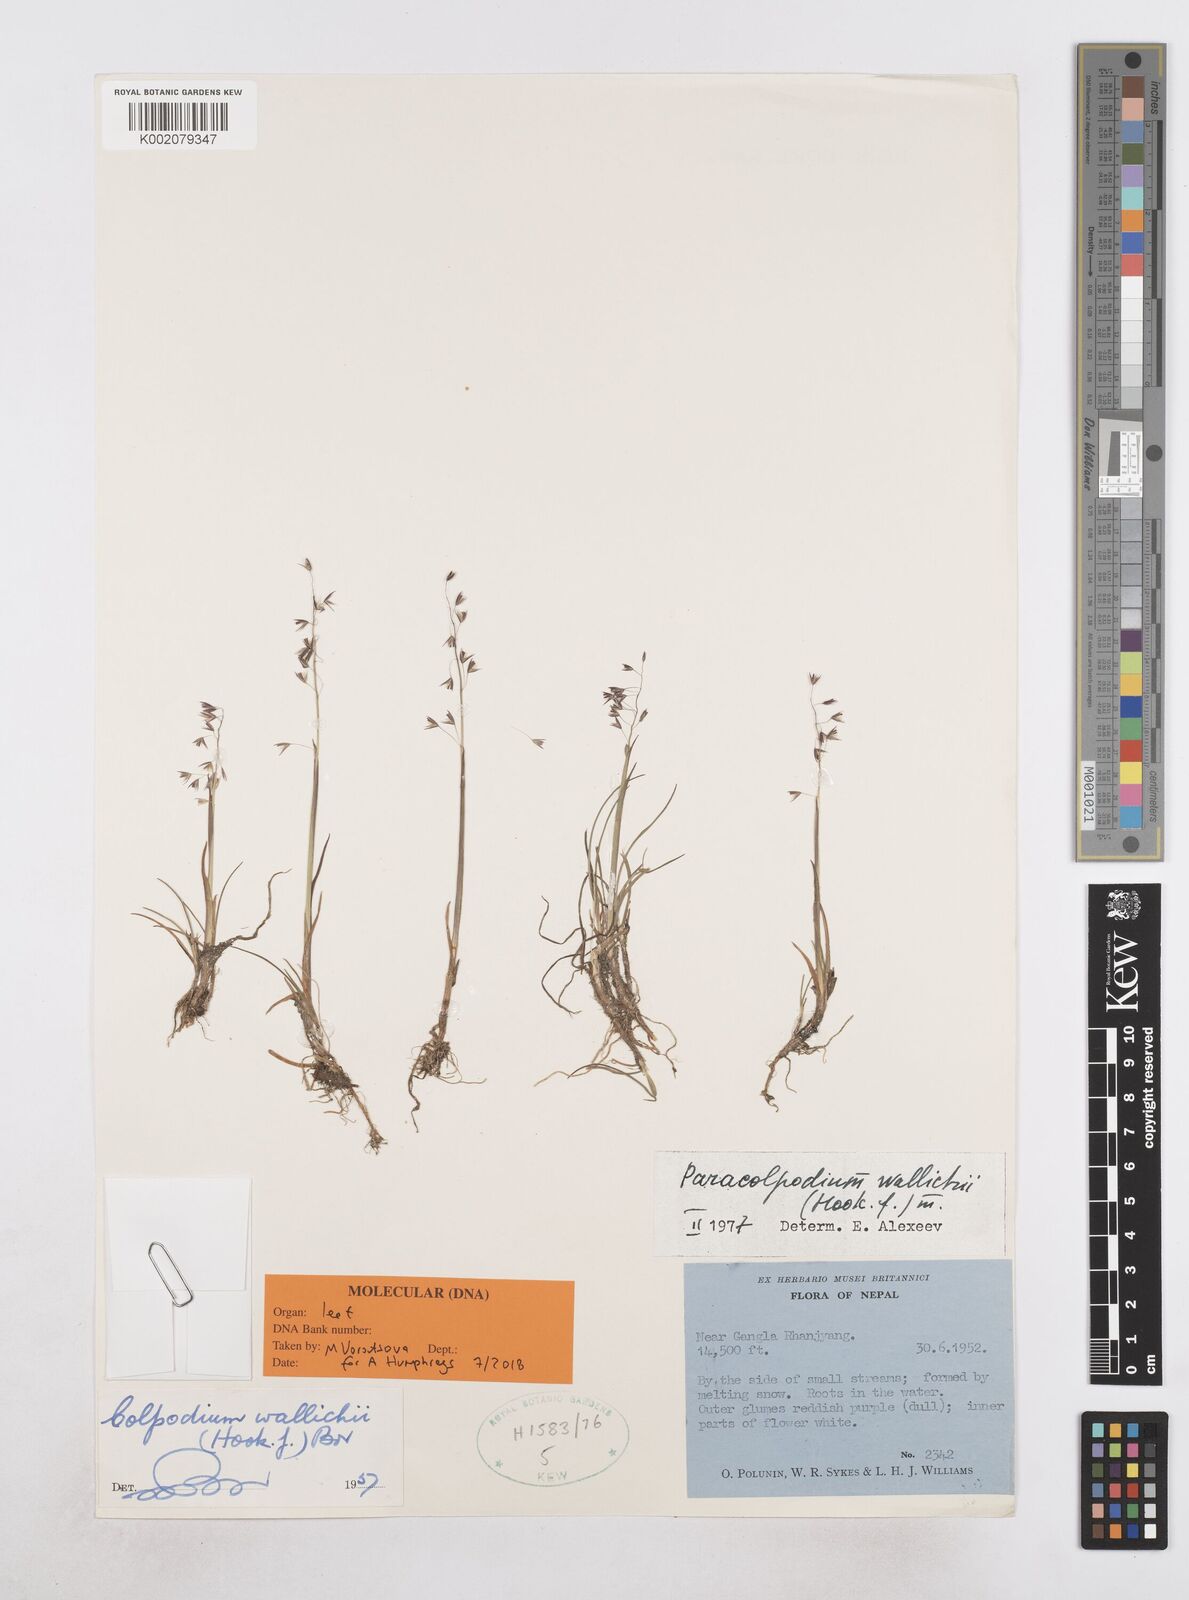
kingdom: Plantae
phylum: Tracheophyta
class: Liliopsida
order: Poales
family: Poaceae
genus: Paracolpodium
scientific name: Paracolpodium wallichii
